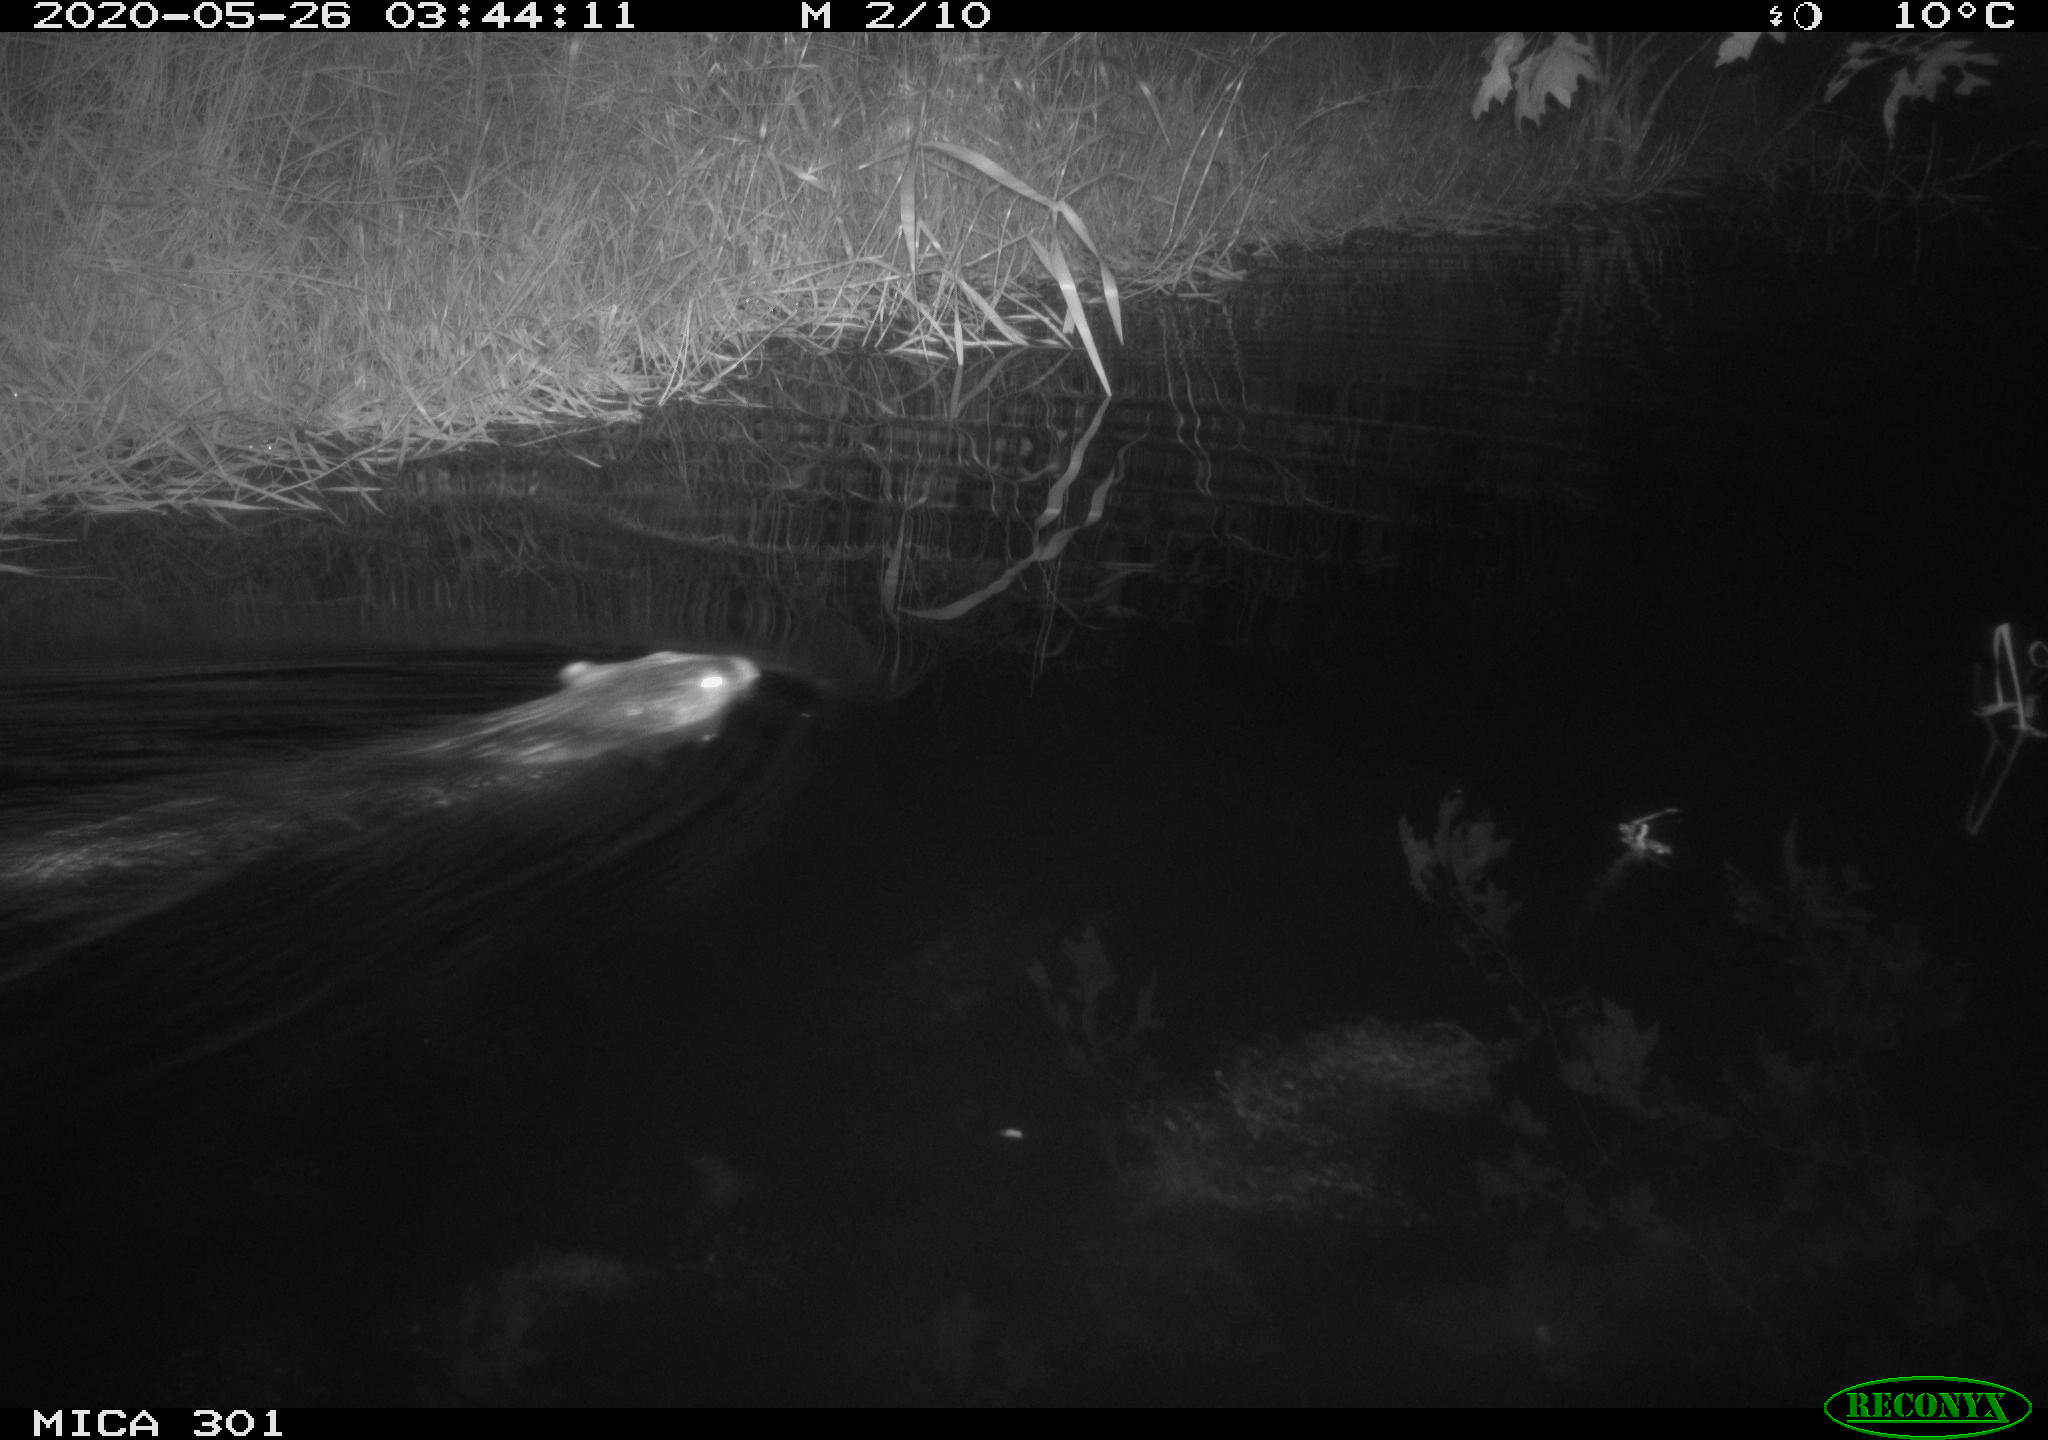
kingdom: Animalia
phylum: Chordata
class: Mammalia
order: Rodentia
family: Castoridae
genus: Castor
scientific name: Castor fiber
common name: Eurasian beaver
